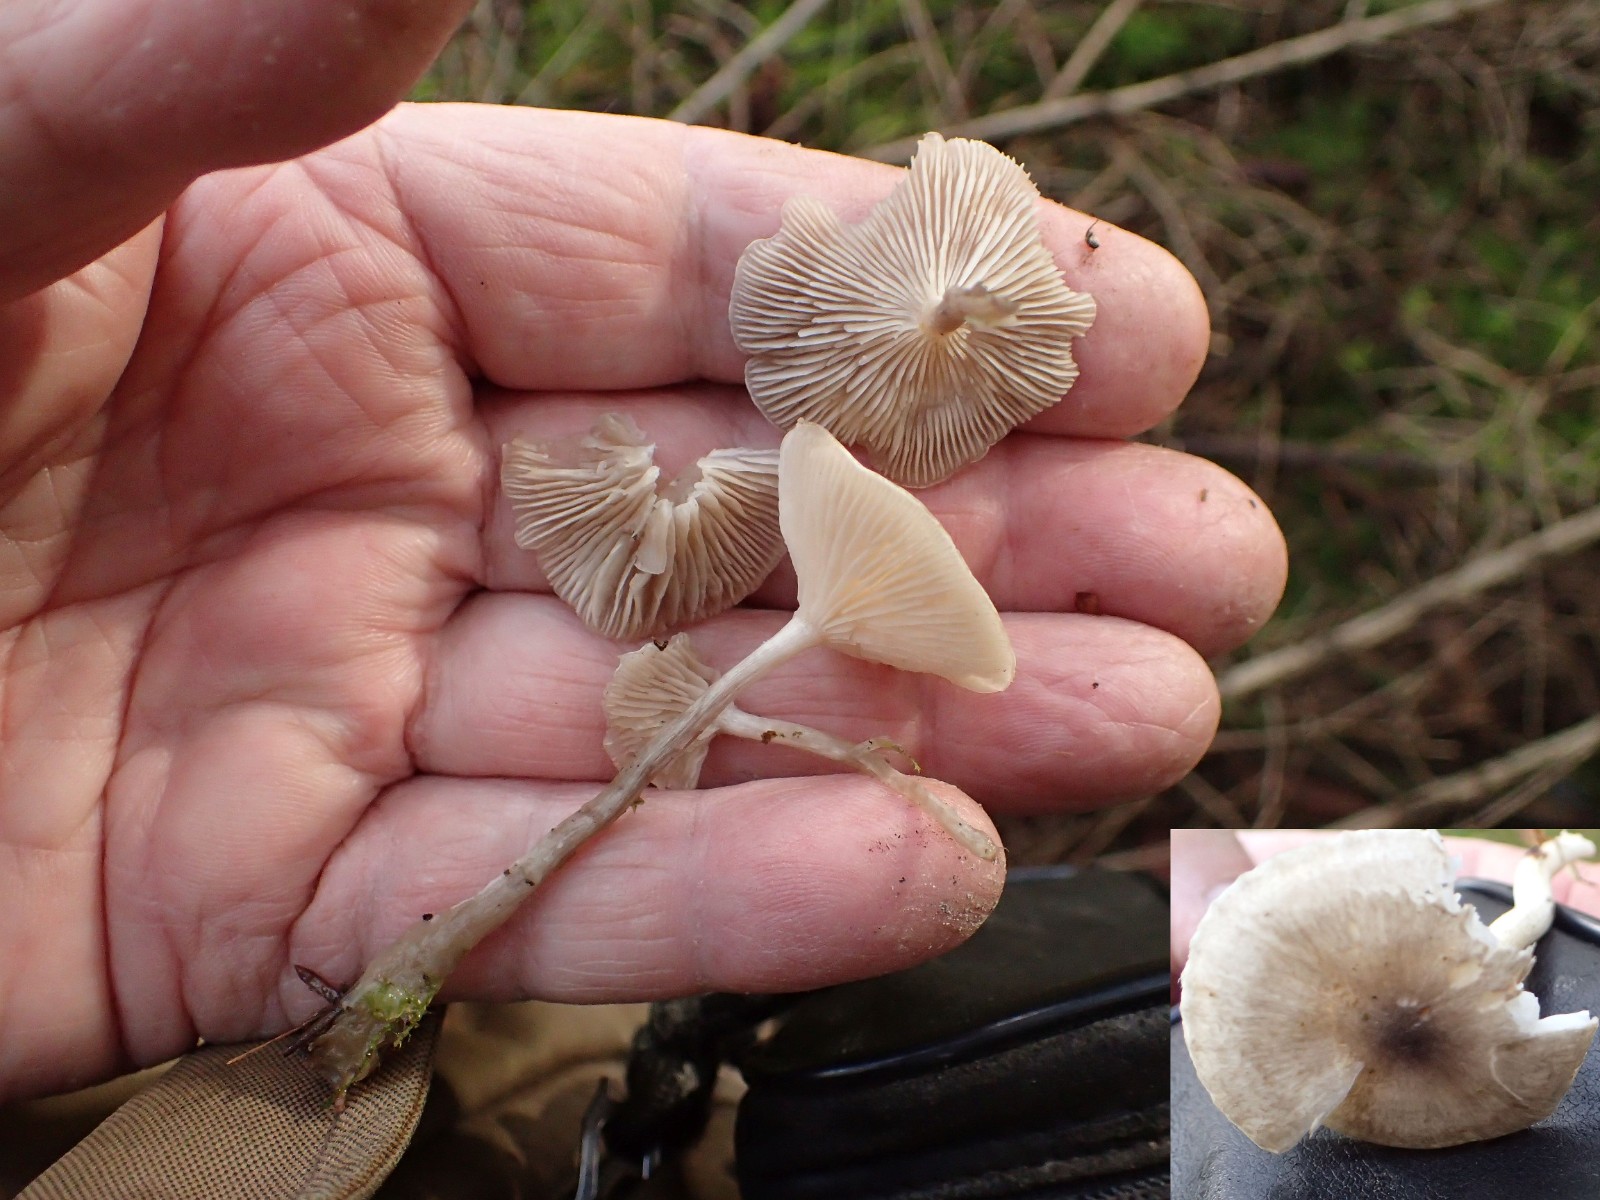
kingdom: Fungi
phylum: Basidiomycota
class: Agaricomycetes
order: Agaricales
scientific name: Agaricales
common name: champignonordenen
